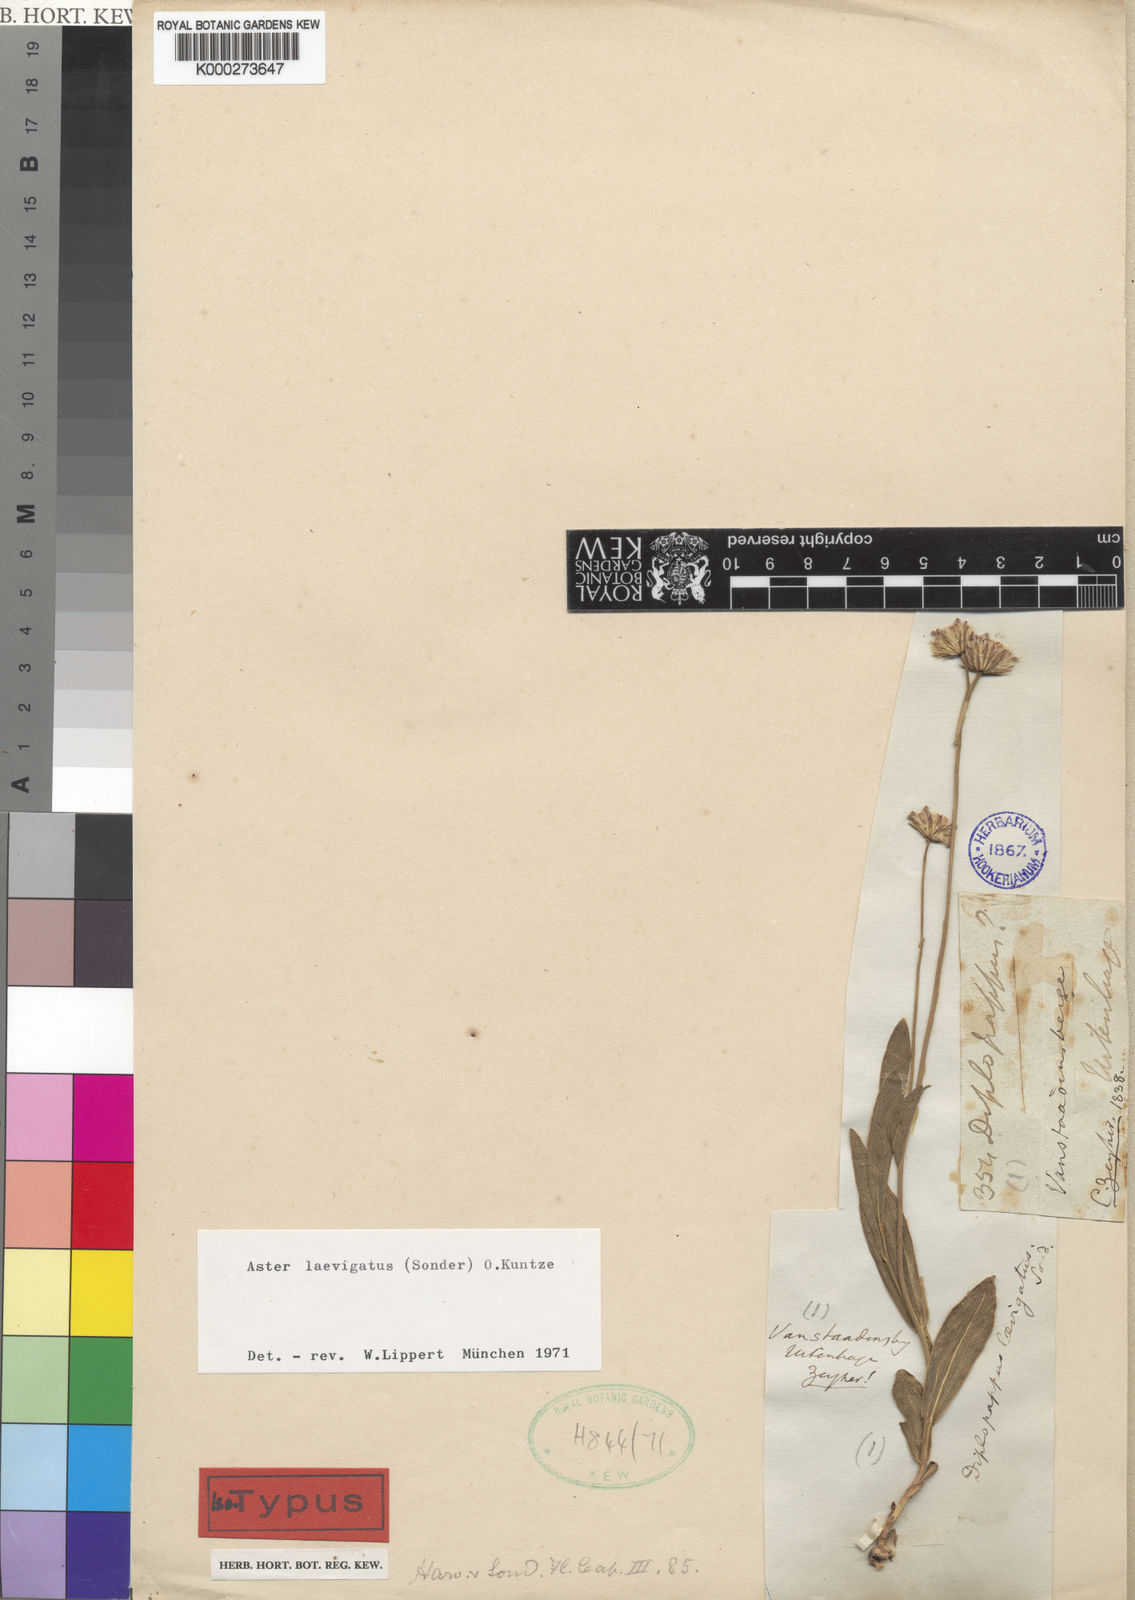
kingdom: Plantae
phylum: Tracheophyta
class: Magnoliopsida
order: Asterales
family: Asteraceae
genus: Afroaster
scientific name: Afroaster laevigatus
